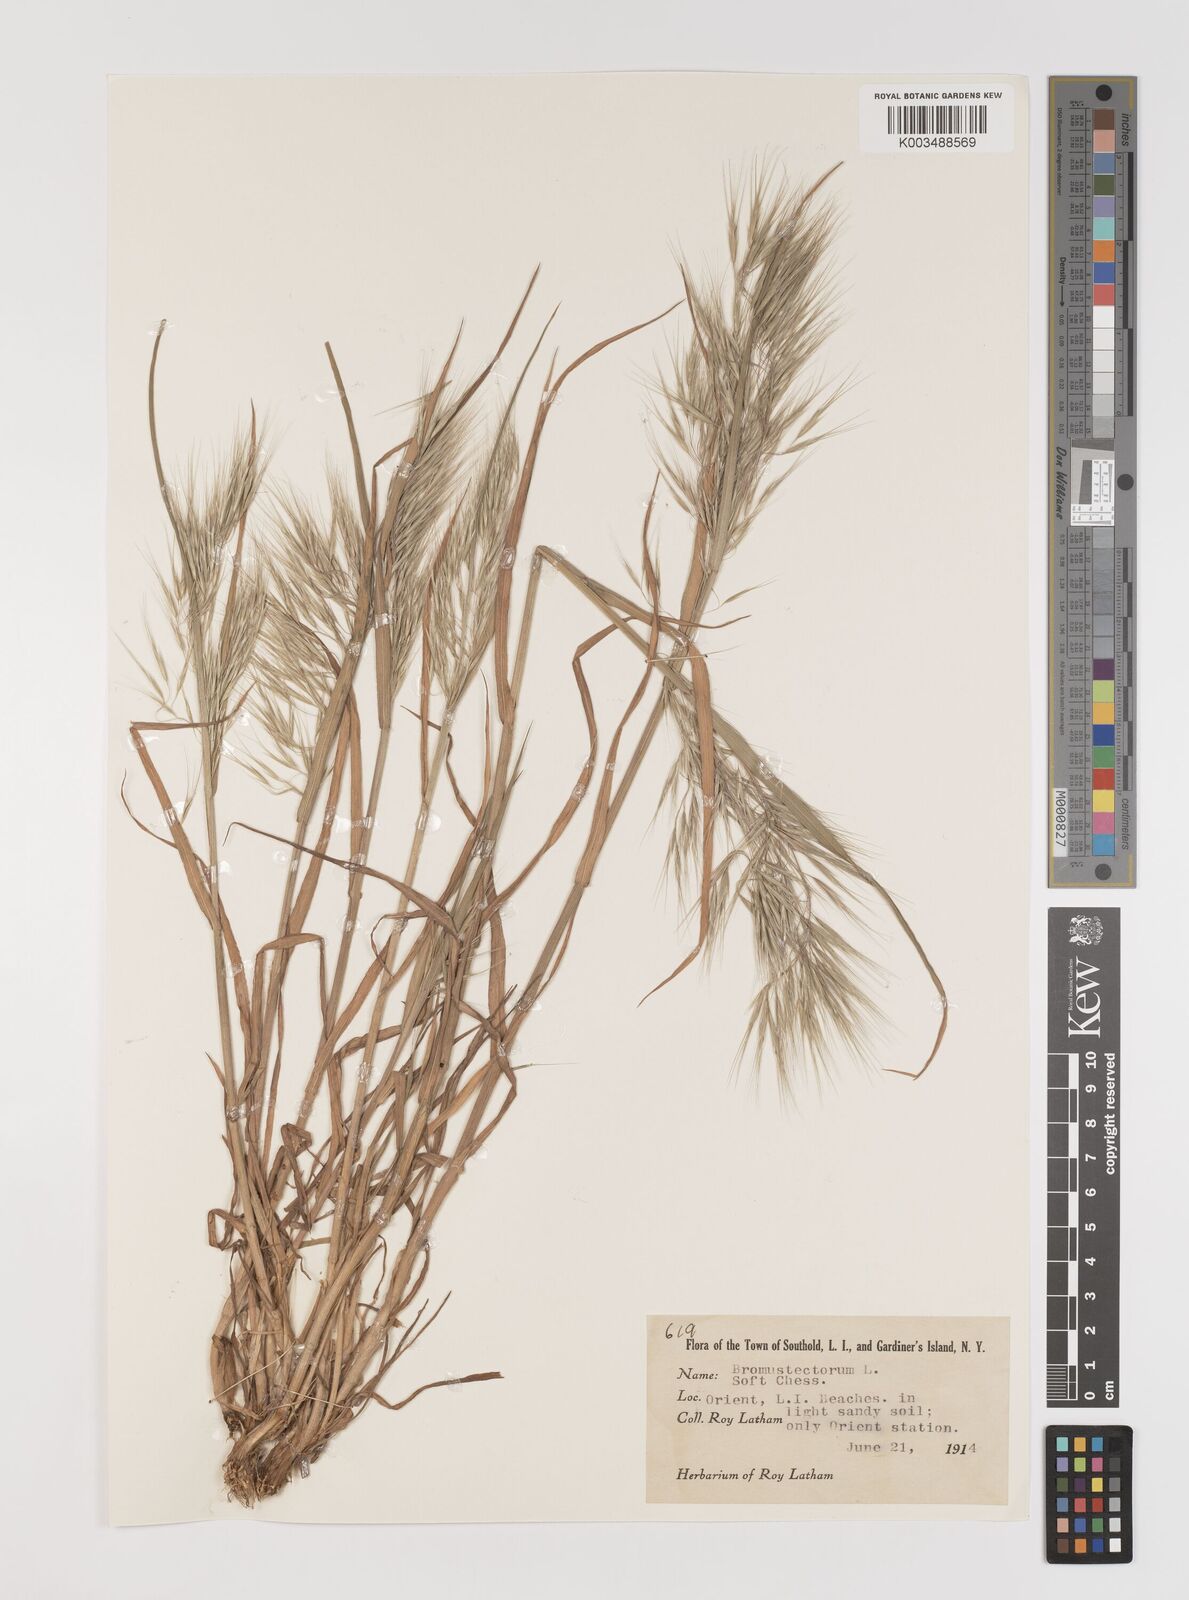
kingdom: Plantae
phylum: Tracheophyta
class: Liliopsida
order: Poales
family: Poaceae
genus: Bromus
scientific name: Bromus tectorum
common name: Cheatgrass
